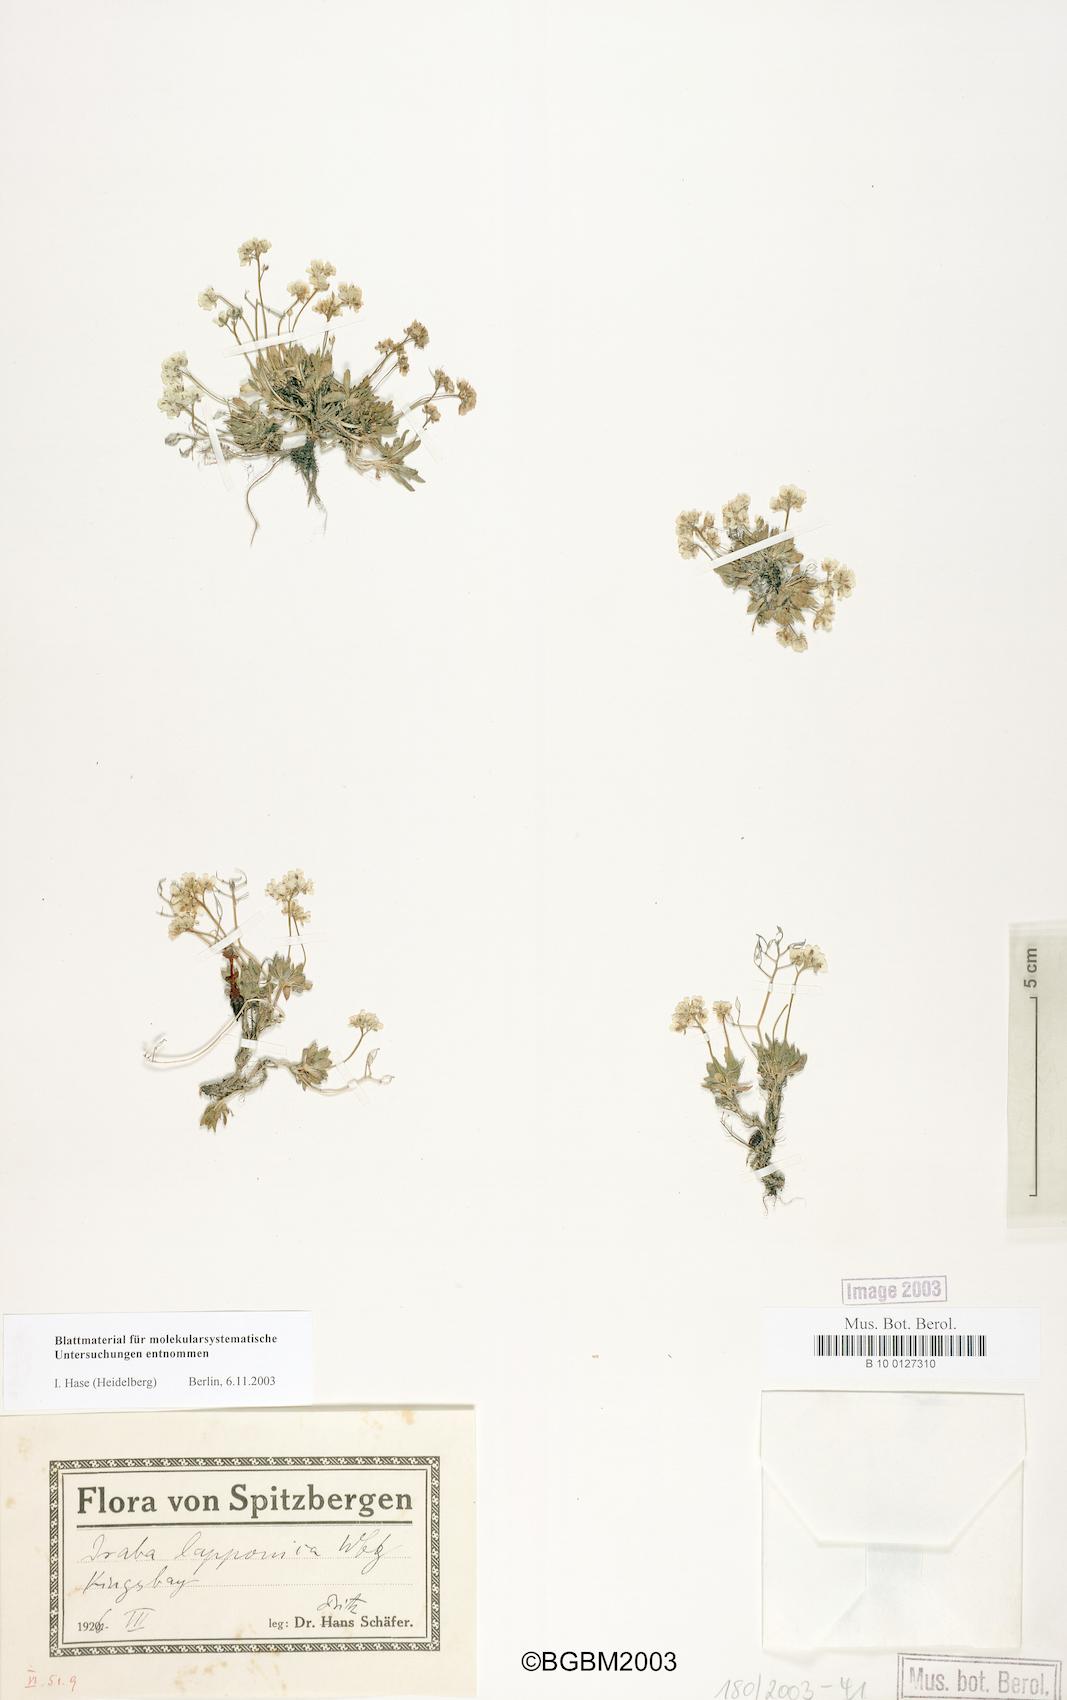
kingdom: Plantae
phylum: Tracheophyta
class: Magnoliopsida
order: Brassicales
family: Brassicaceae
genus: Draba
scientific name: Draba fladnizensis
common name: Austrian draba
